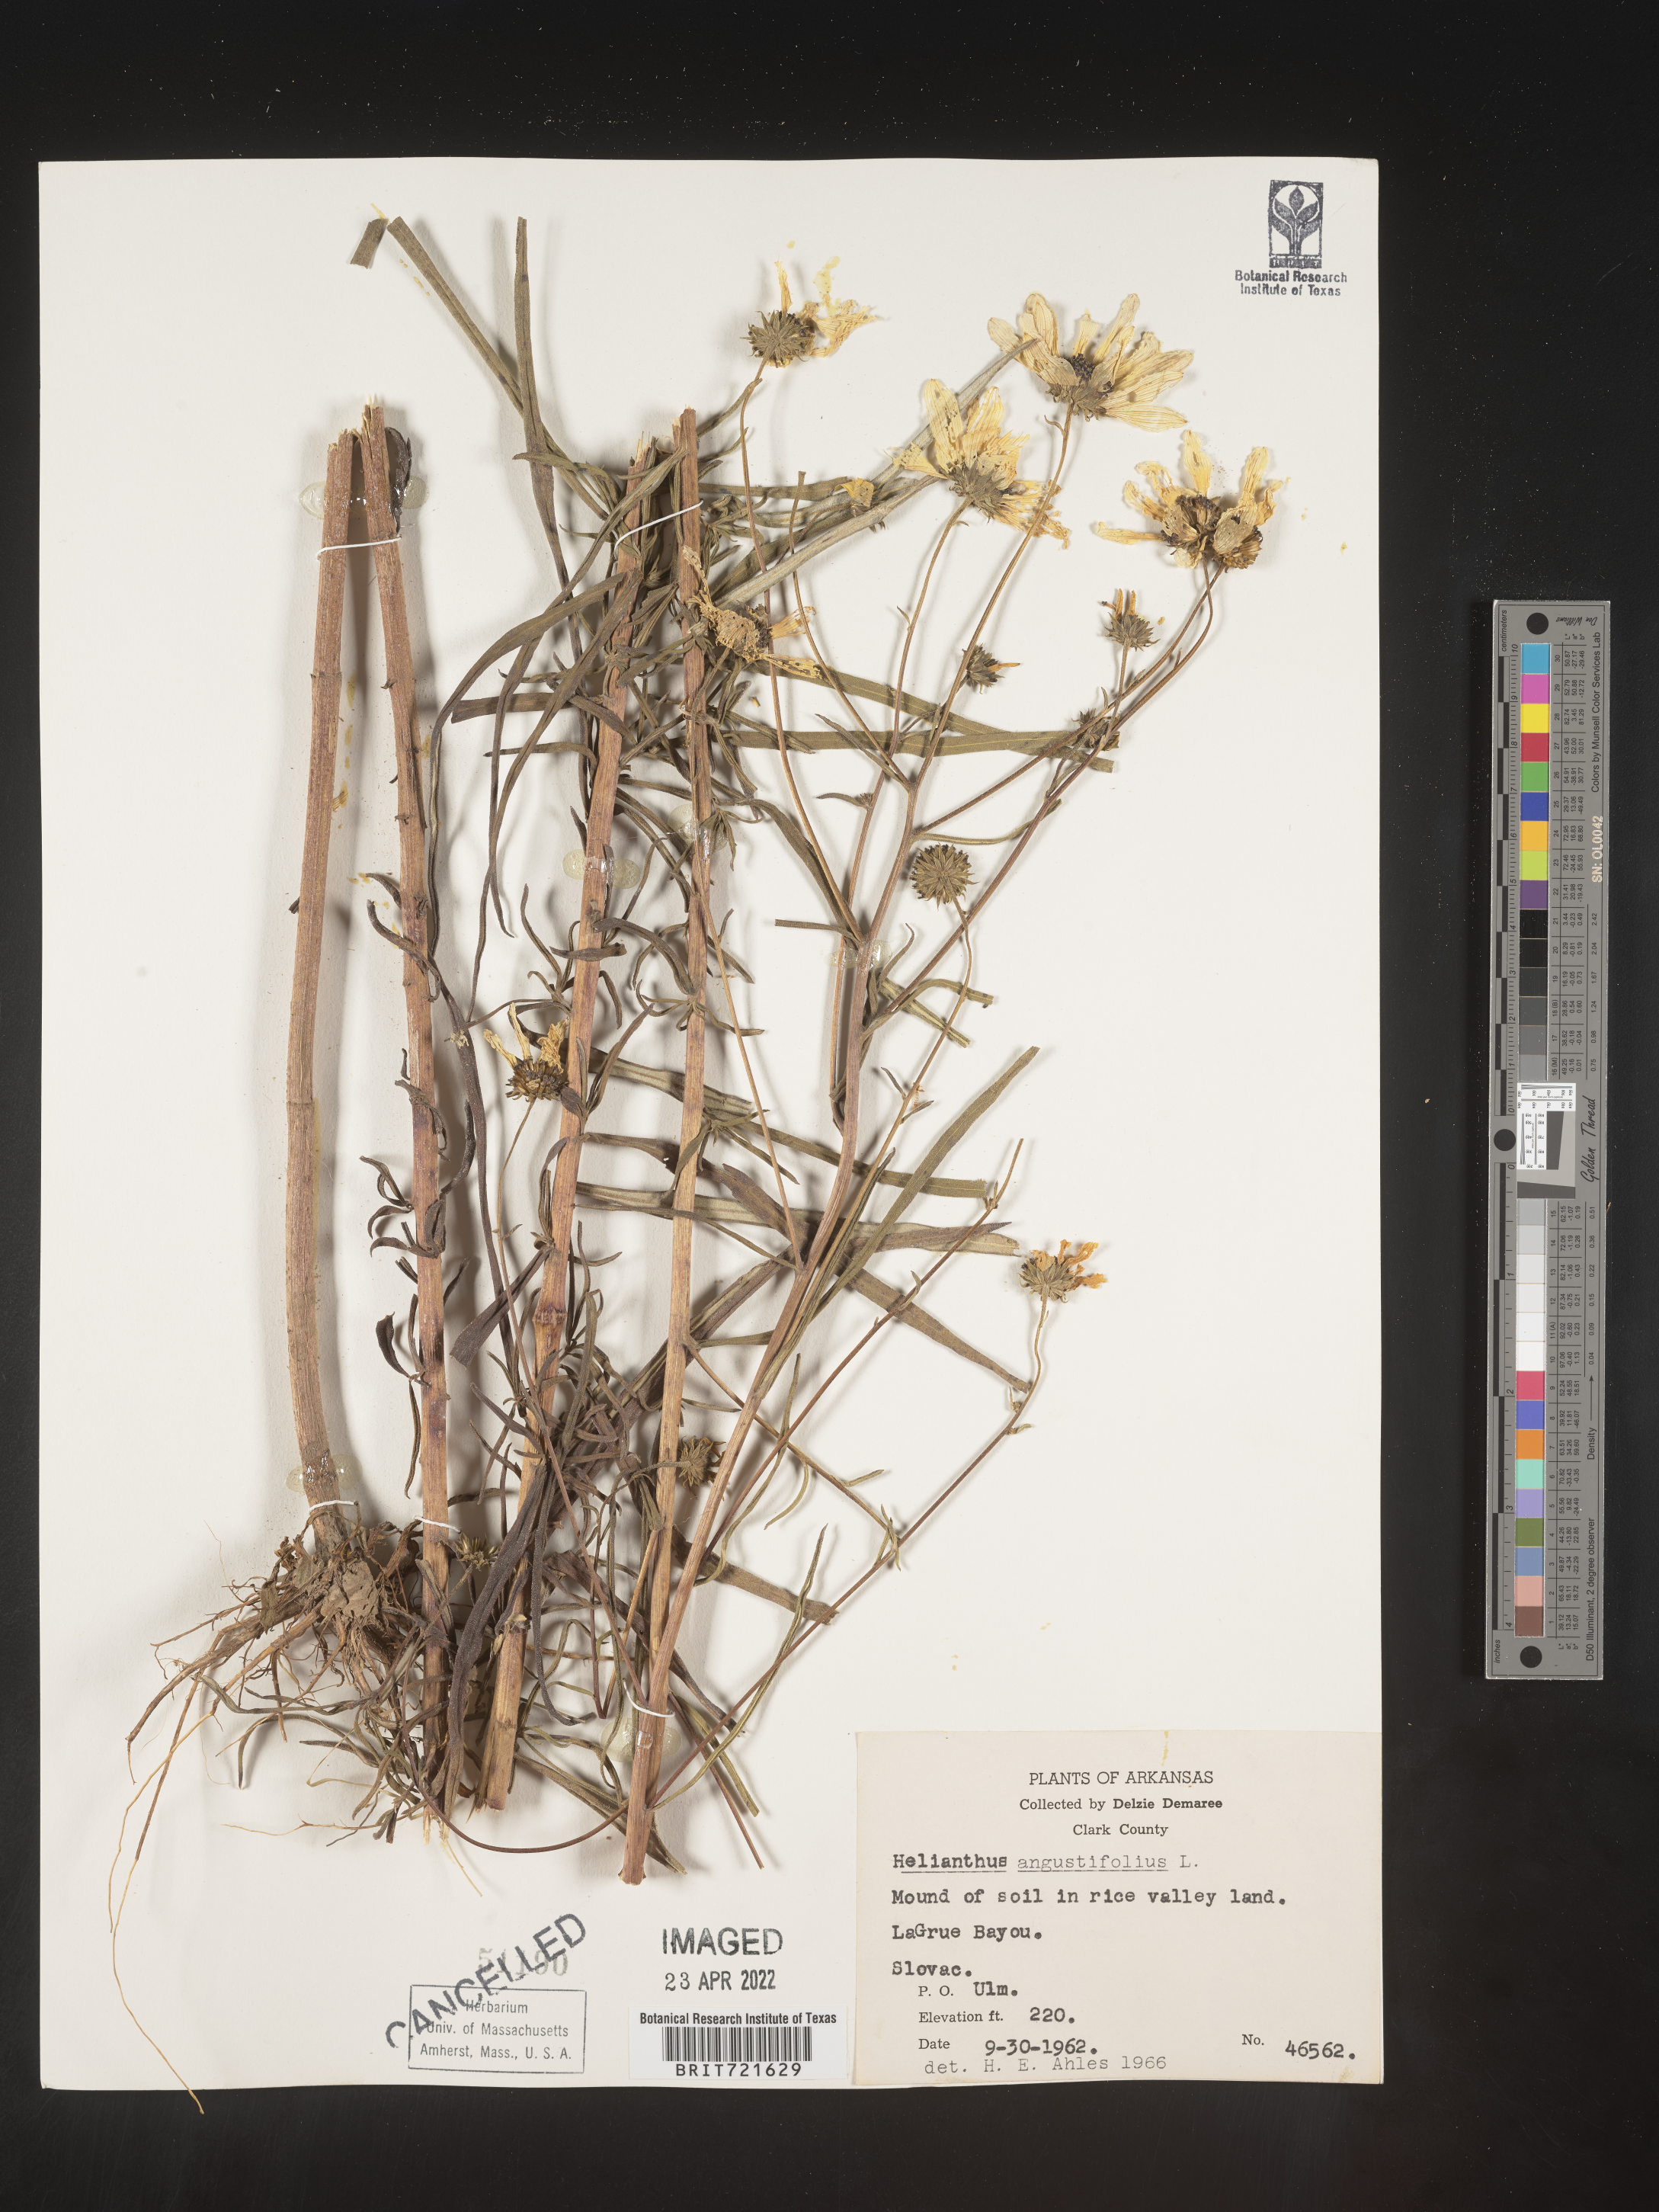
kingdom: Plantae
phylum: Tracheophyta
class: Magnoliopsida
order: Asterales
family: Asteraceae
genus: Helianthus
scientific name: Helianthus angustifolius
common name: Swamp sunflower
